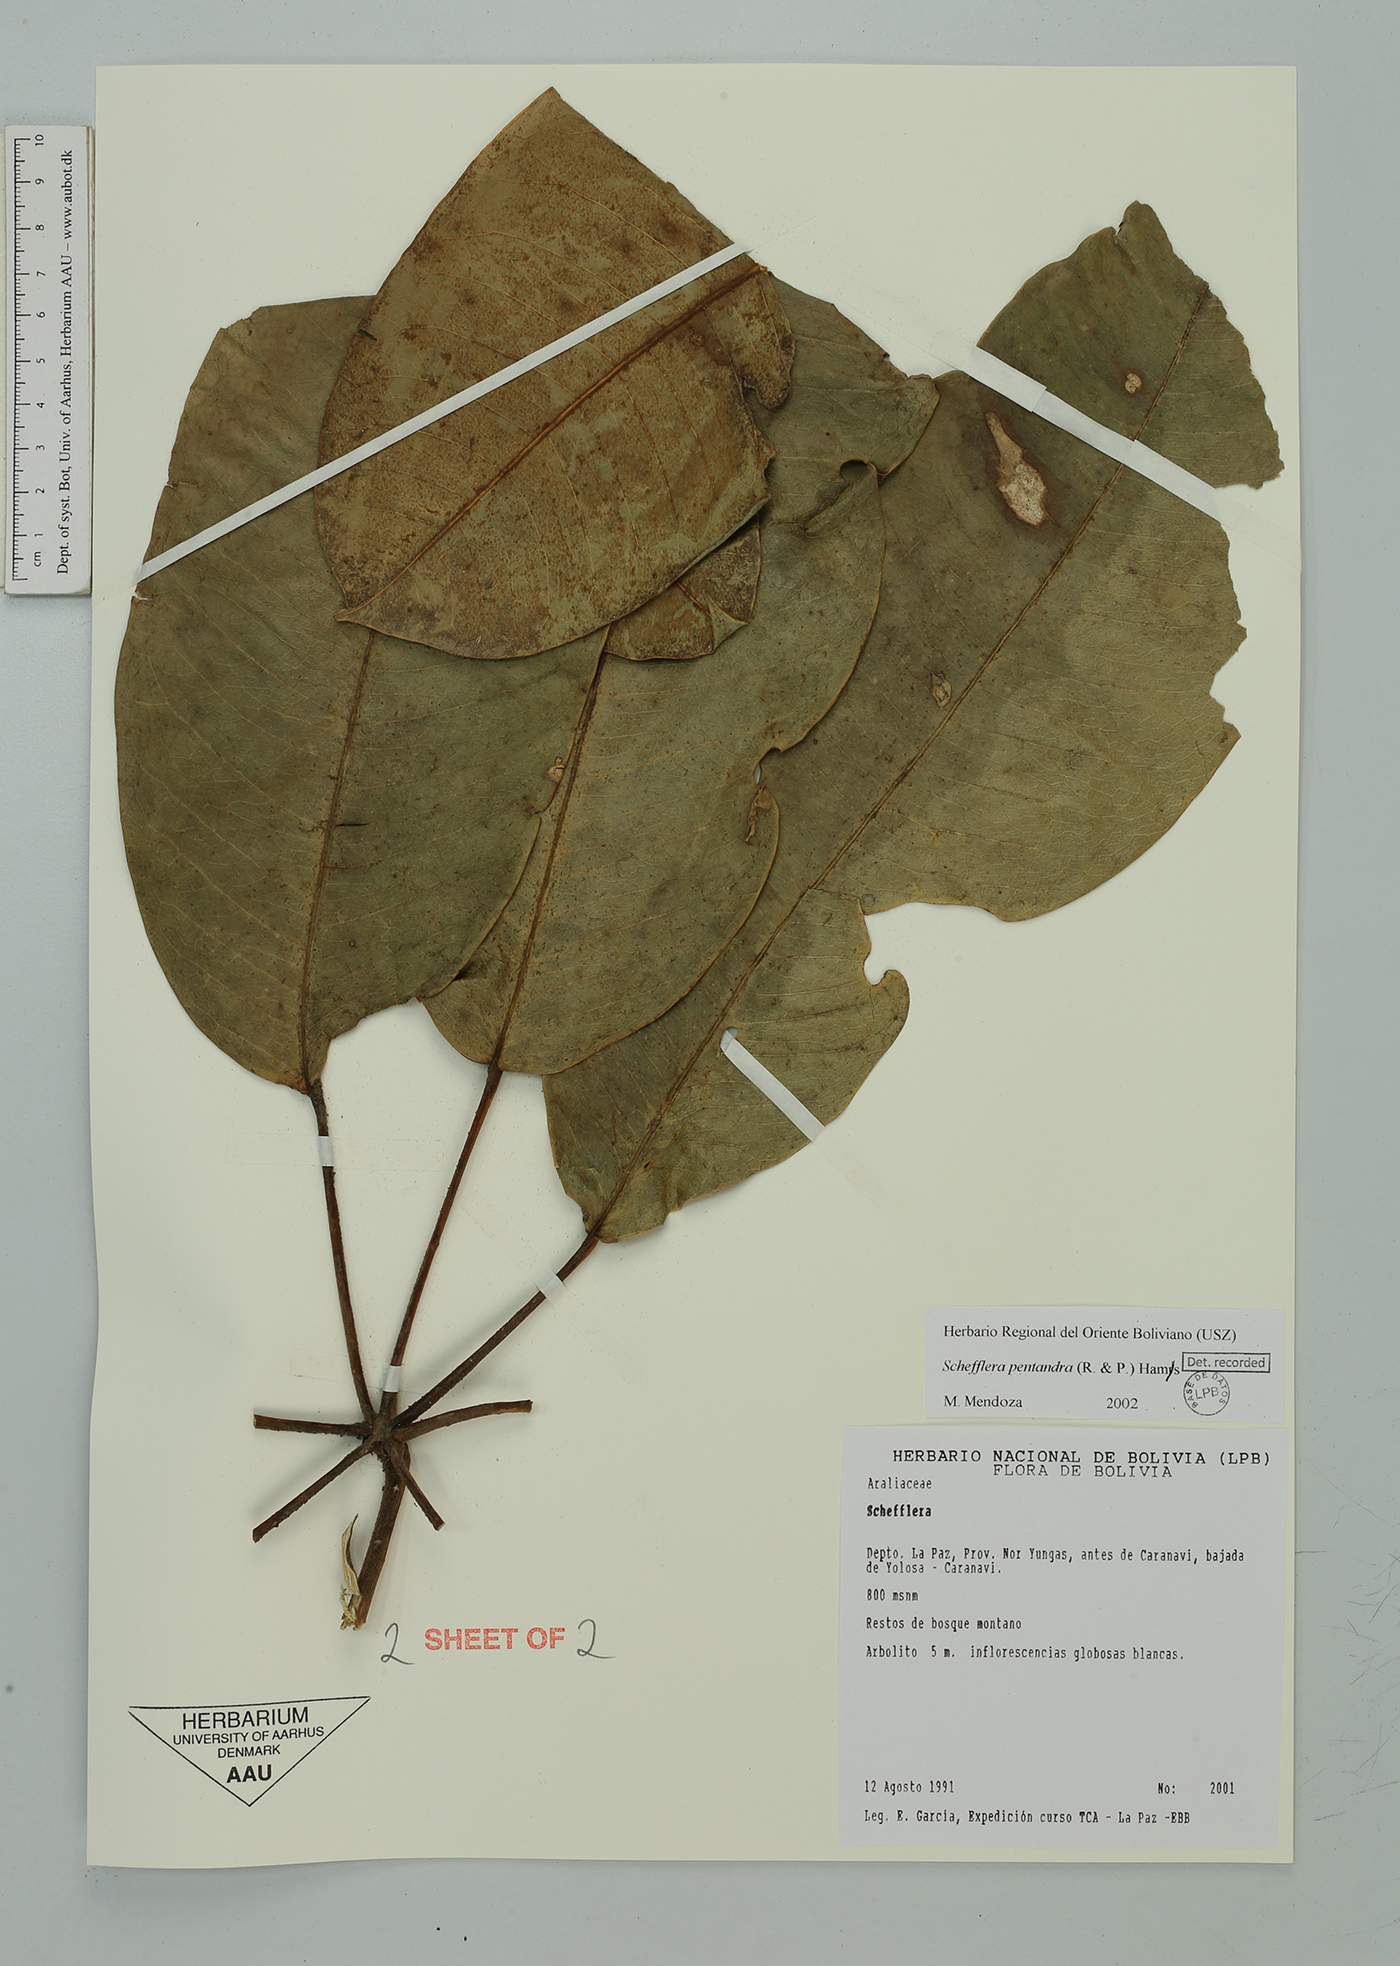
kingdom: Plantae
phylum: Tracheophyta
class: Magnoliopsida
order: Apiales
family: Araliaceae
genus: Sciodaphyllum
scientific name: Sciodaphyllum pentandrum
